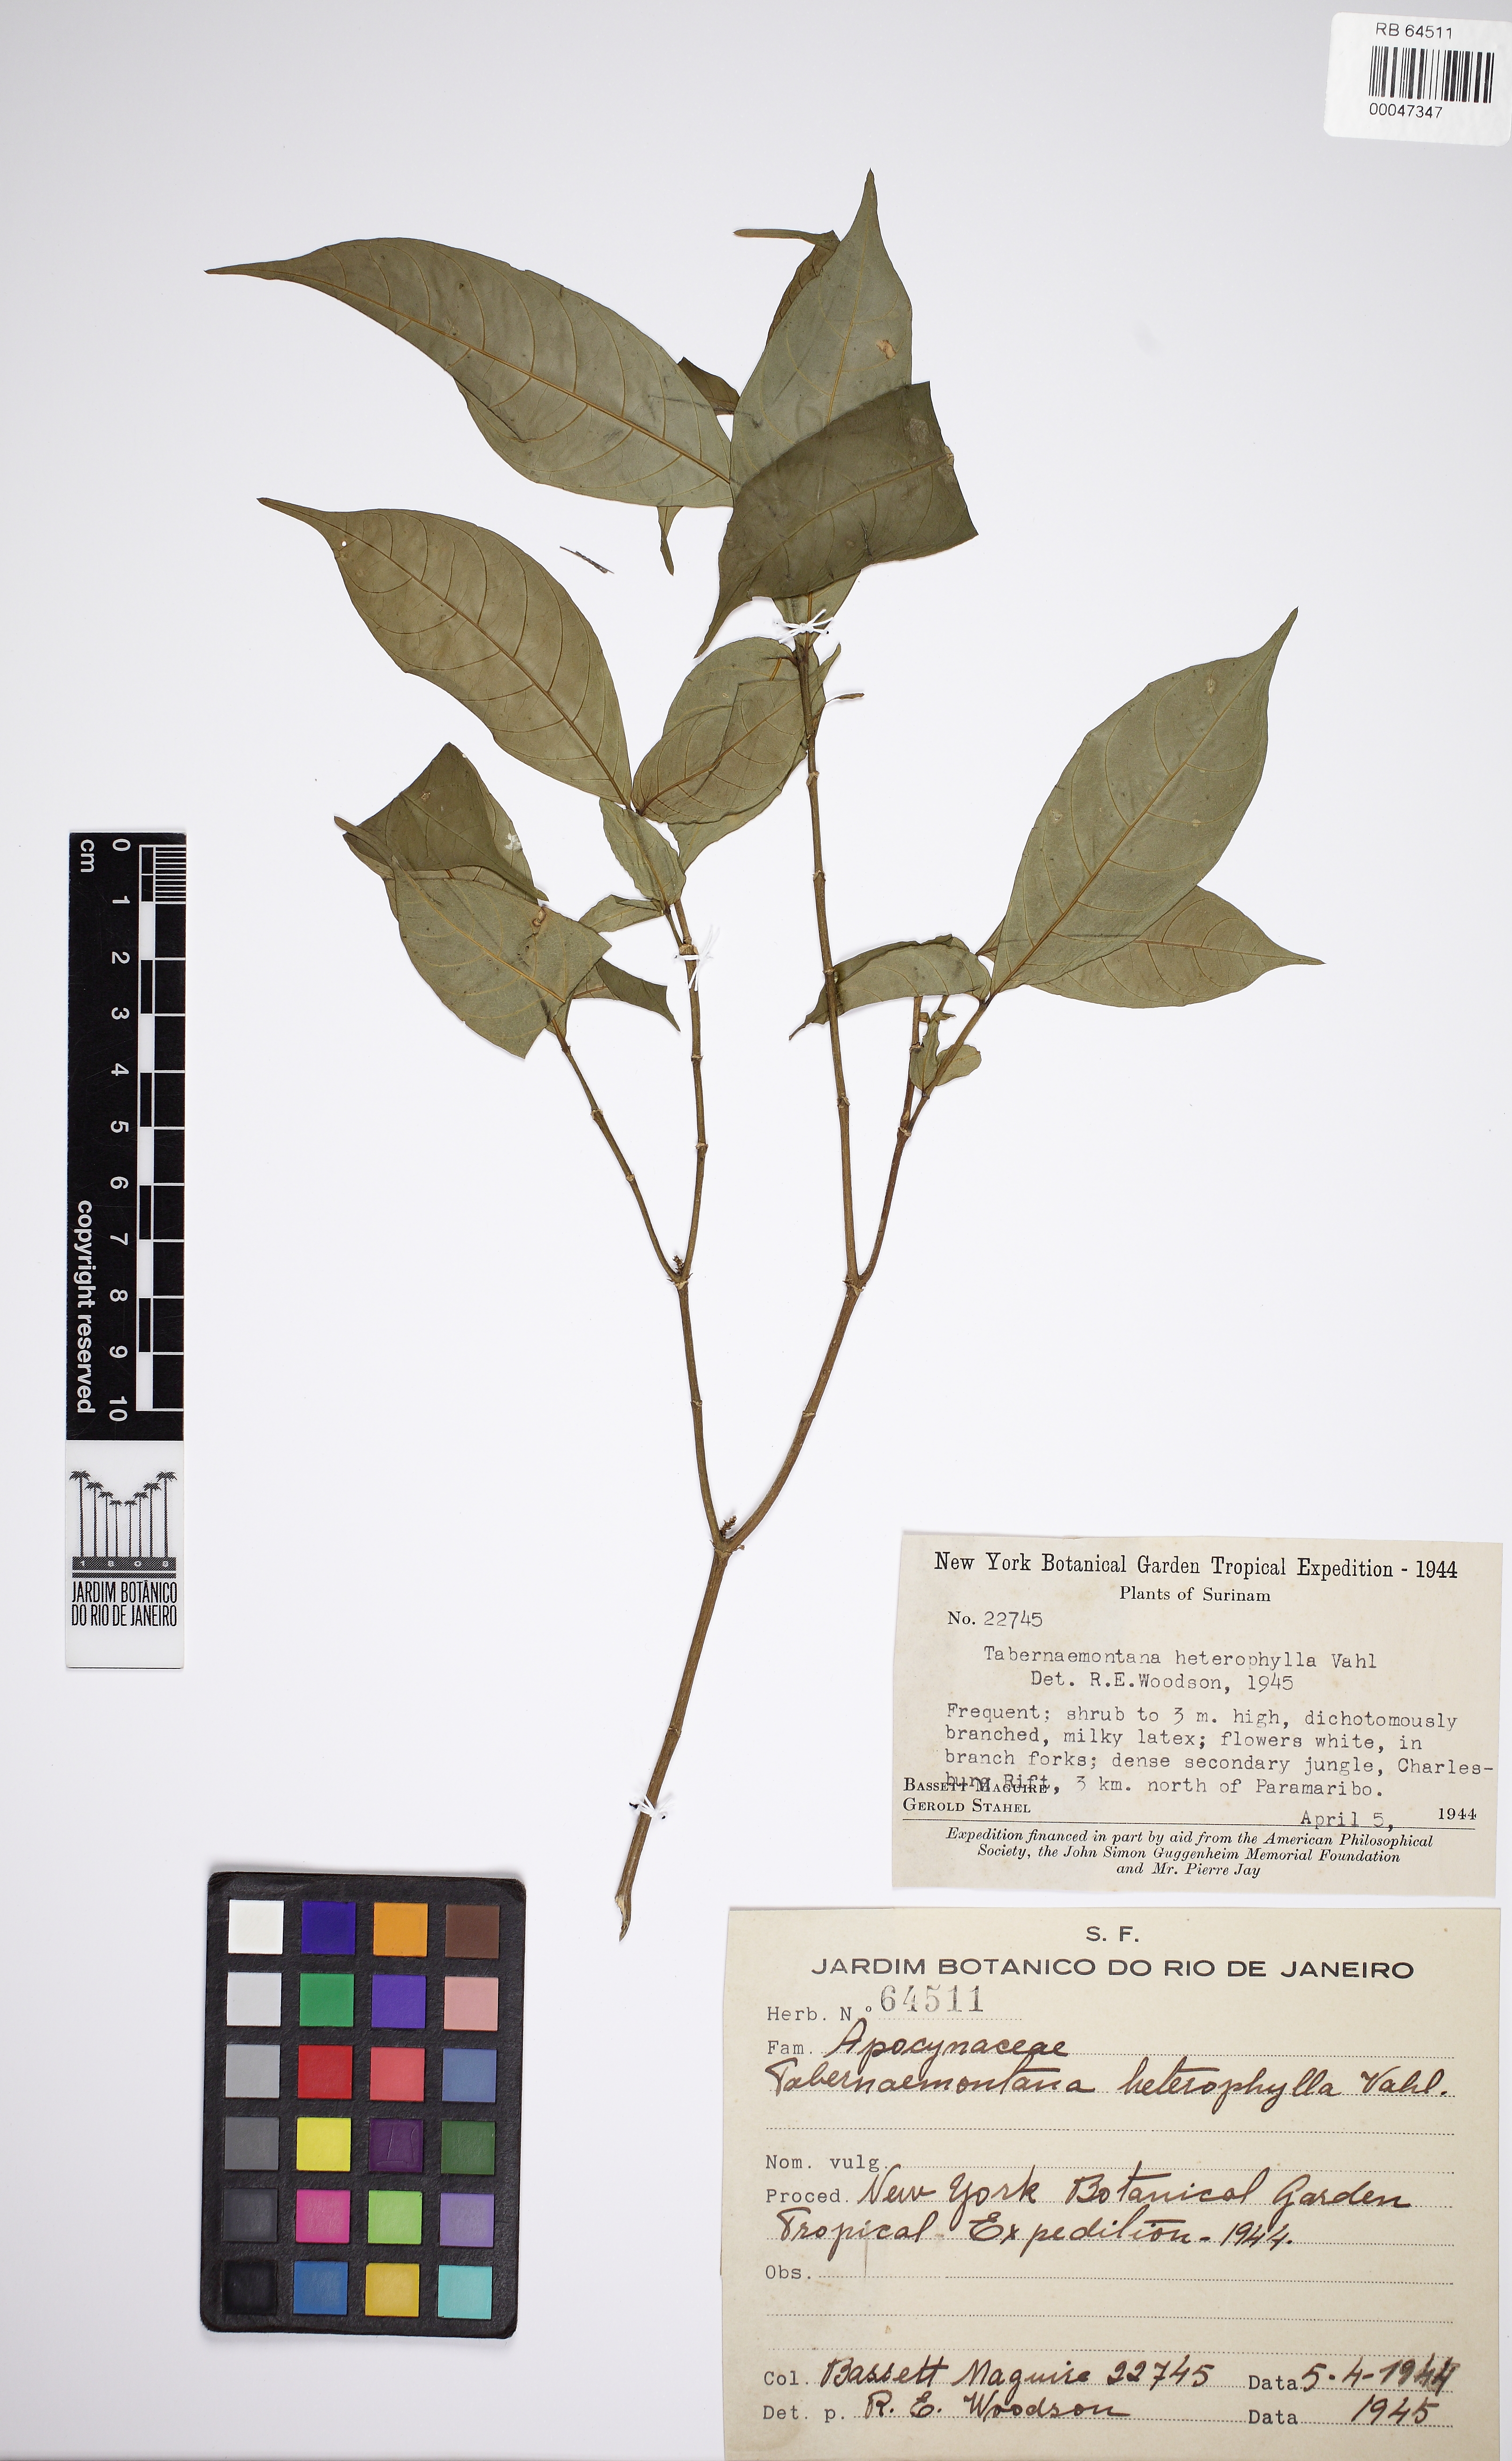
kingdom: Plantae
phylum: Tracheophyta
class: Magnoliopsida
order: Gentianales
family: Apocynaceae
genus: Tabernaemontana
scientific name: Tabernaemontana heterophylla
